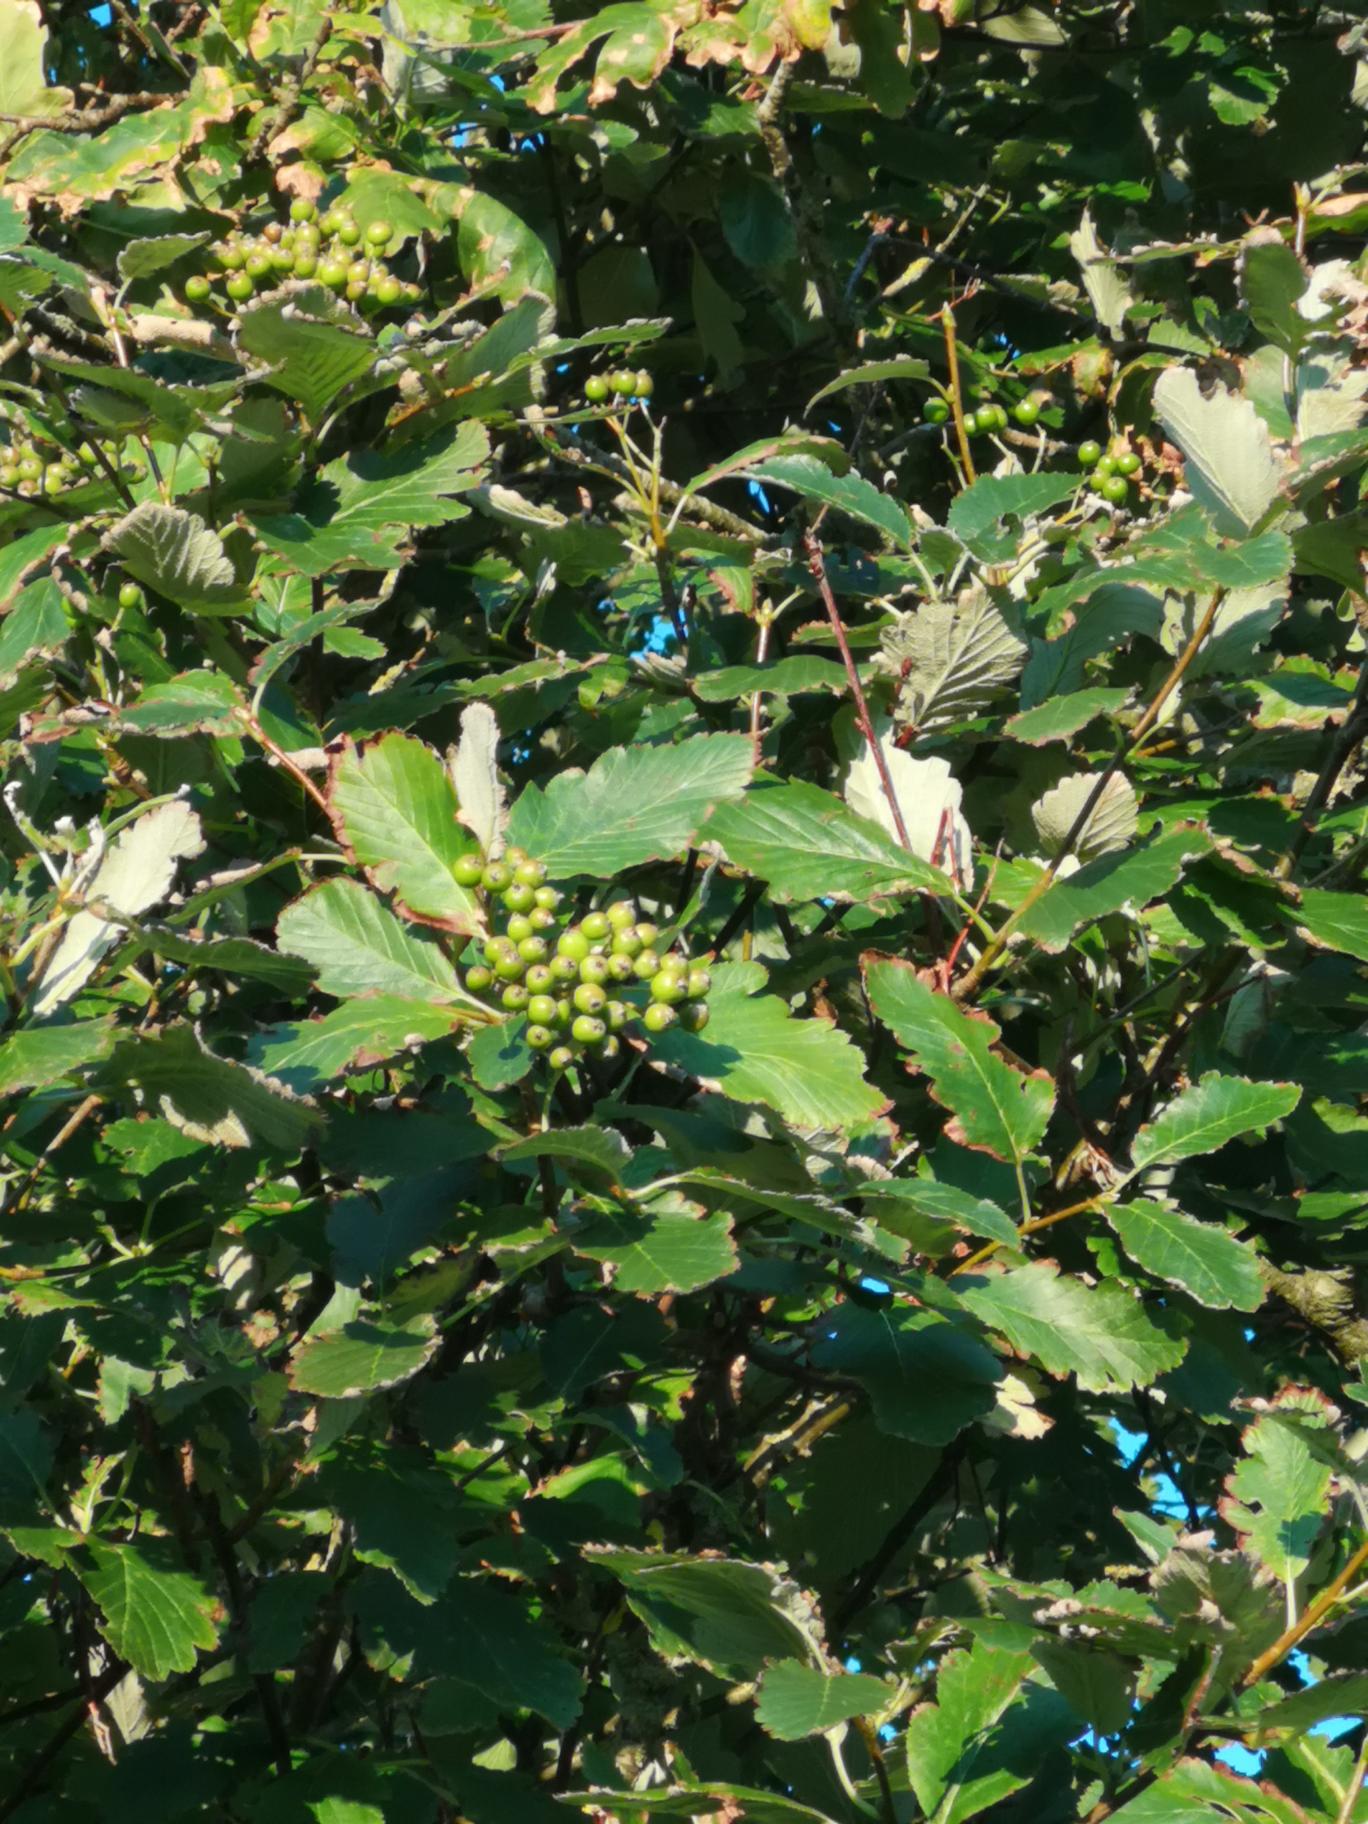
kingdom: Plantae
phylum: Tracheophyta
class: Magnoliopsida
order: Rosales
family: Rosaceae
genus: Hedlundia
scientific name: Hedlundia mougeotii
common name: Pyrenæisk røn
